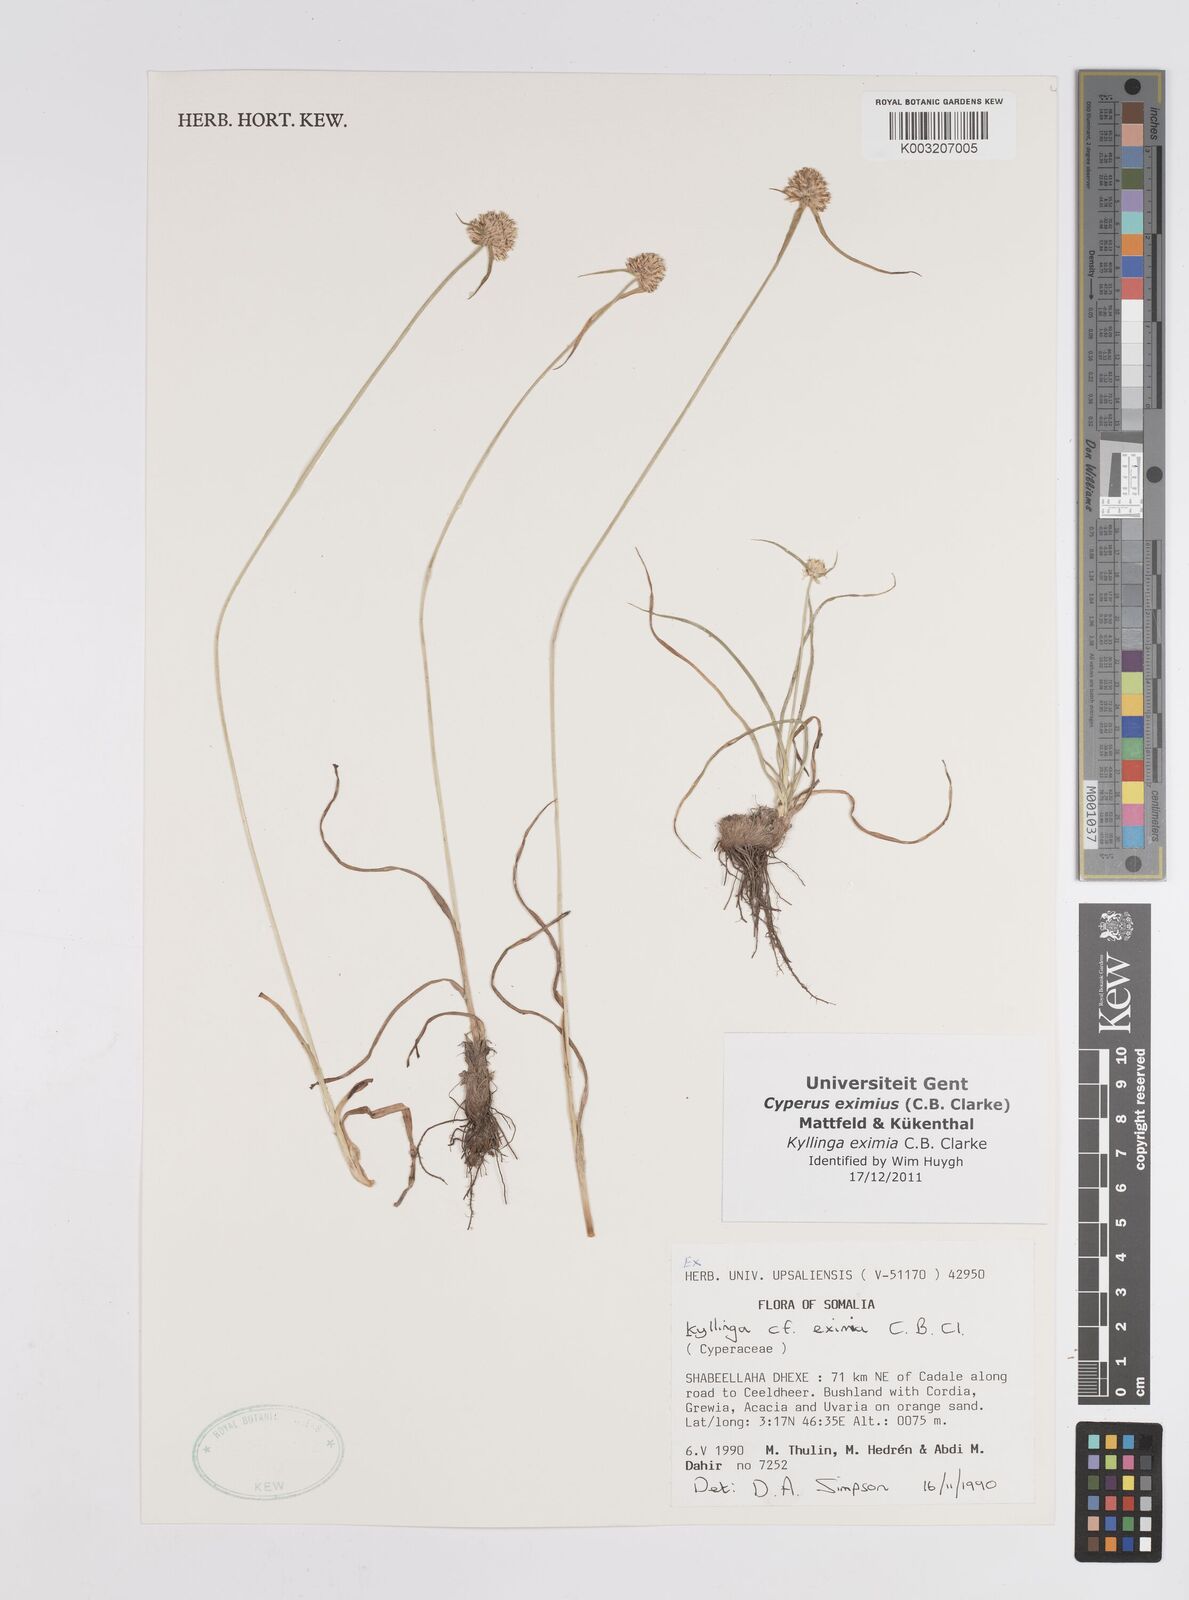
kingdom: Plantae
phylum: Tracheophyta
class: Liliopsida
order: Poales
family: Cyperaceae
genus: Cyperus
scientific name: Cyperus eximius
